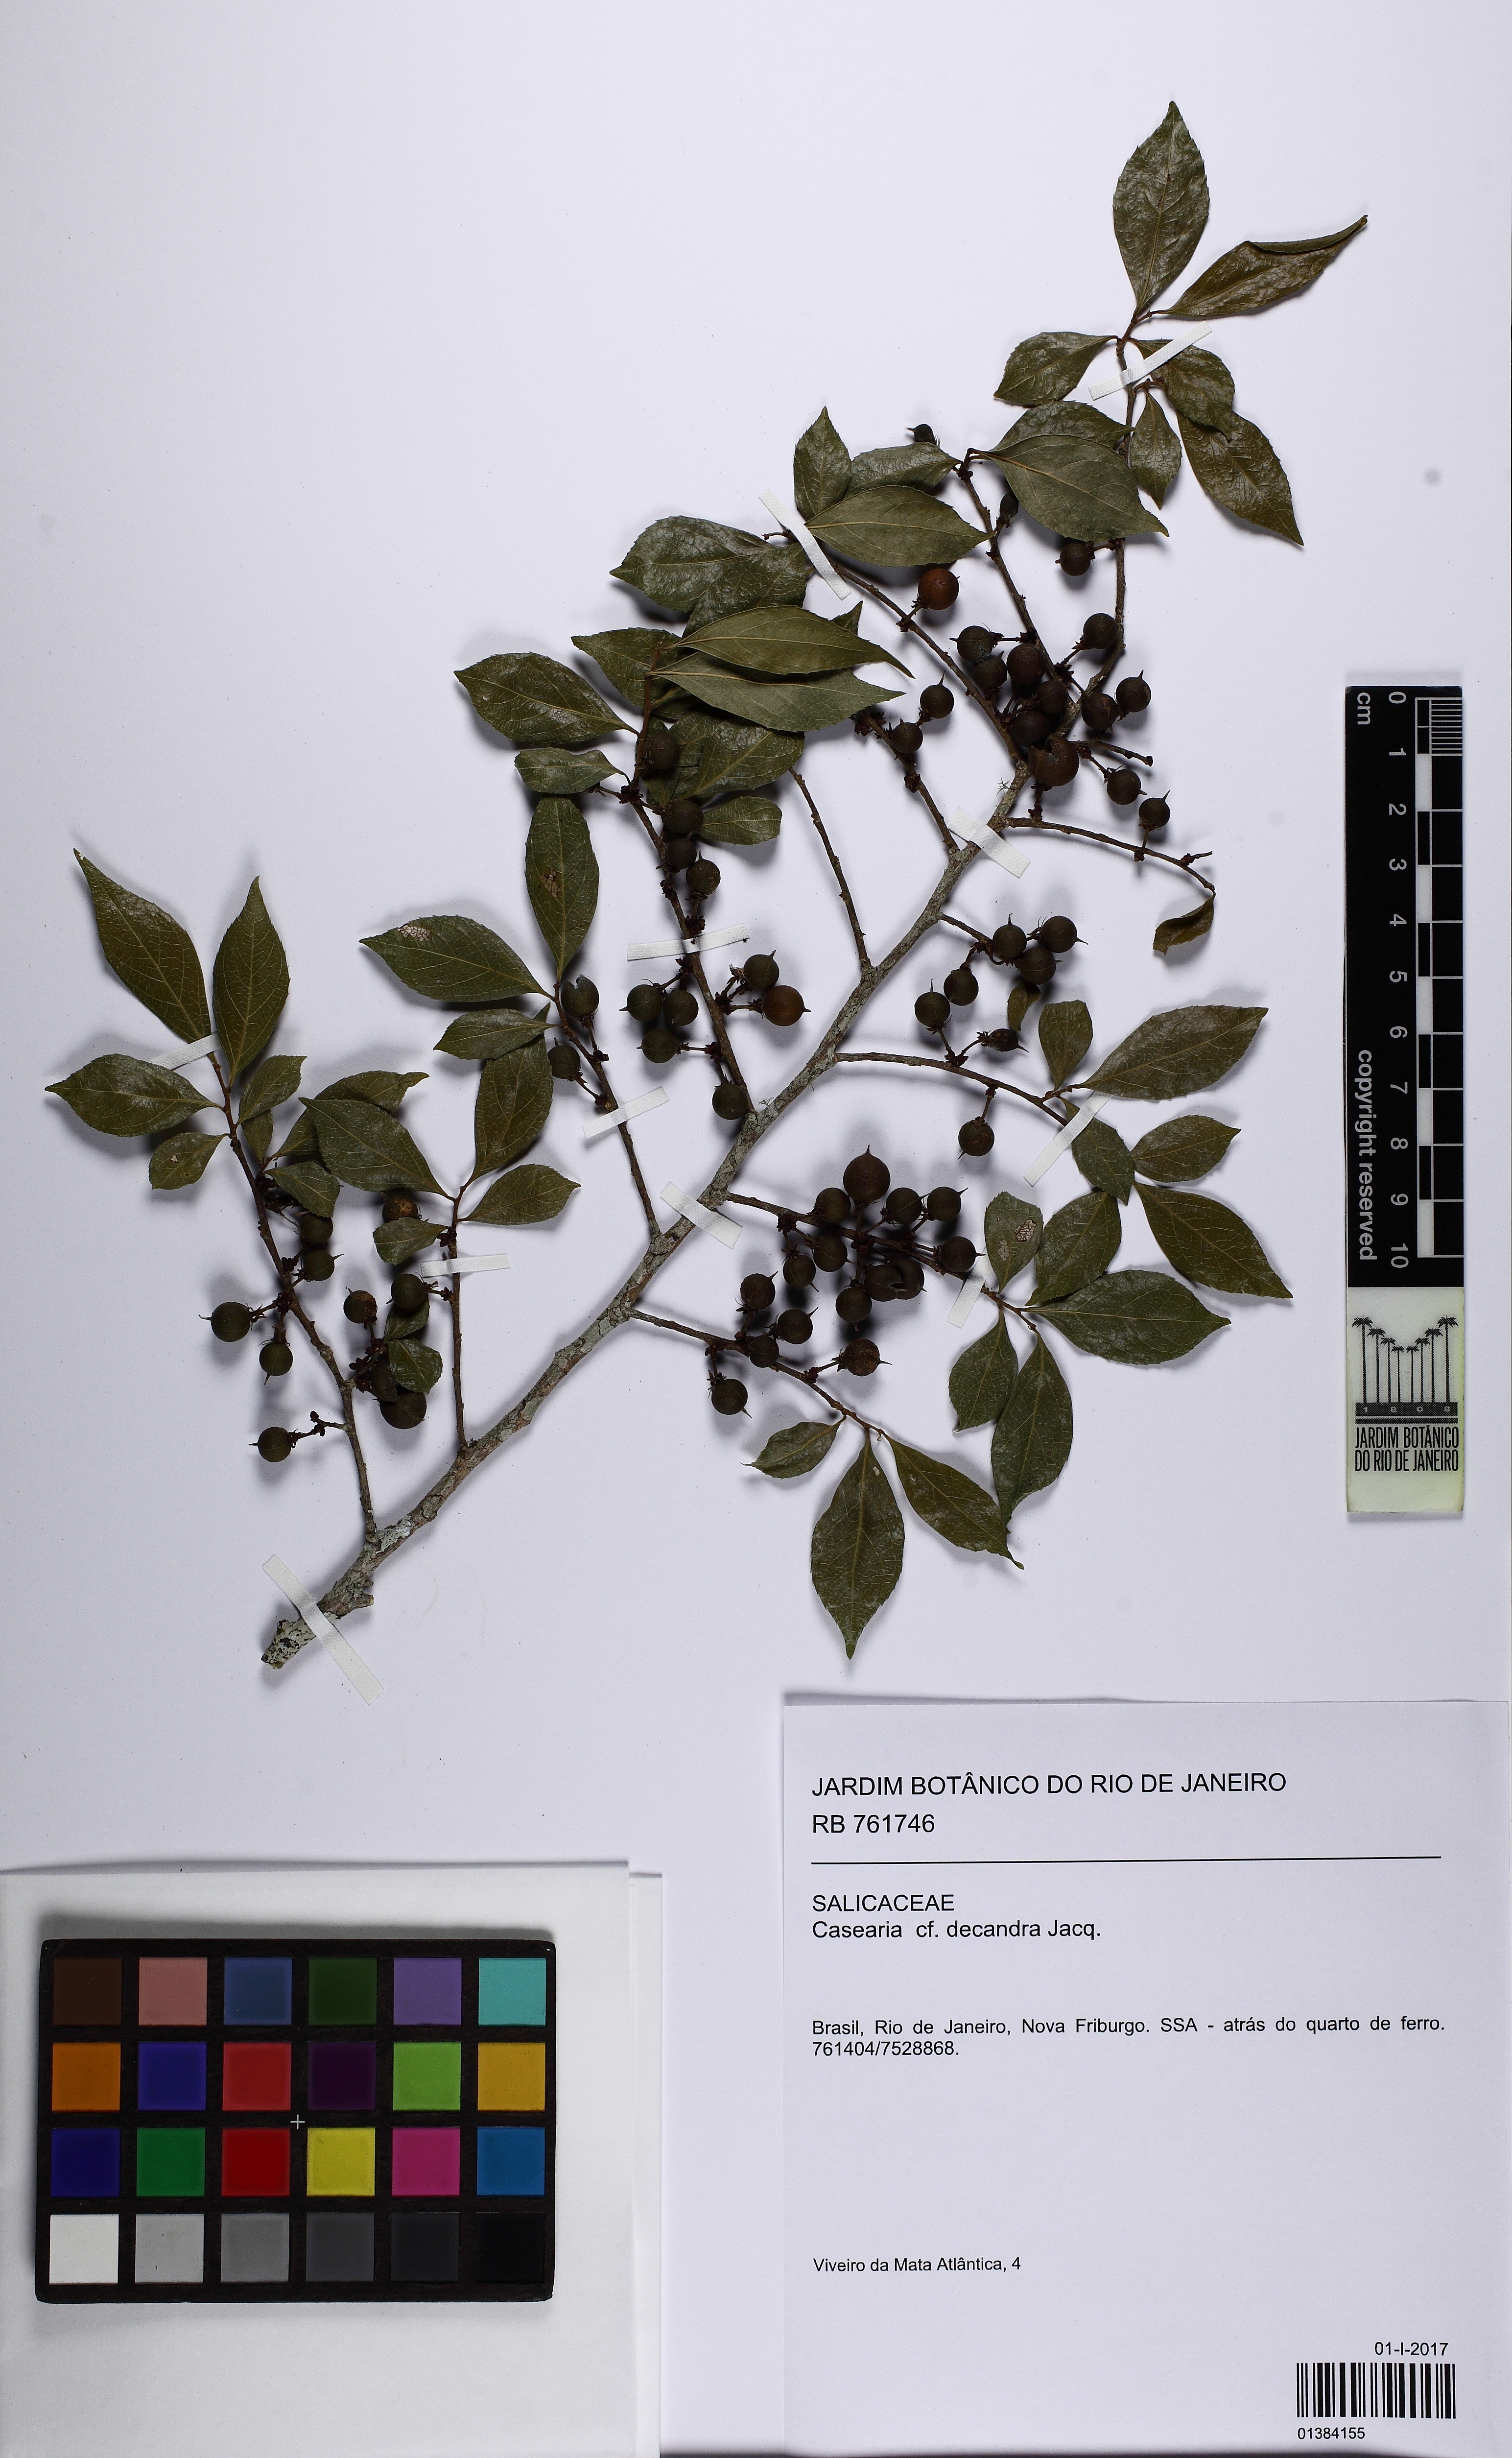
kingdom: Plantae
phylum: Tracheophyta
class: Magnoliopsida
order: Malpighiales
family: Salicaceae
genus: Casearia
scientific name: Casearia decandra
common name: Crack open
